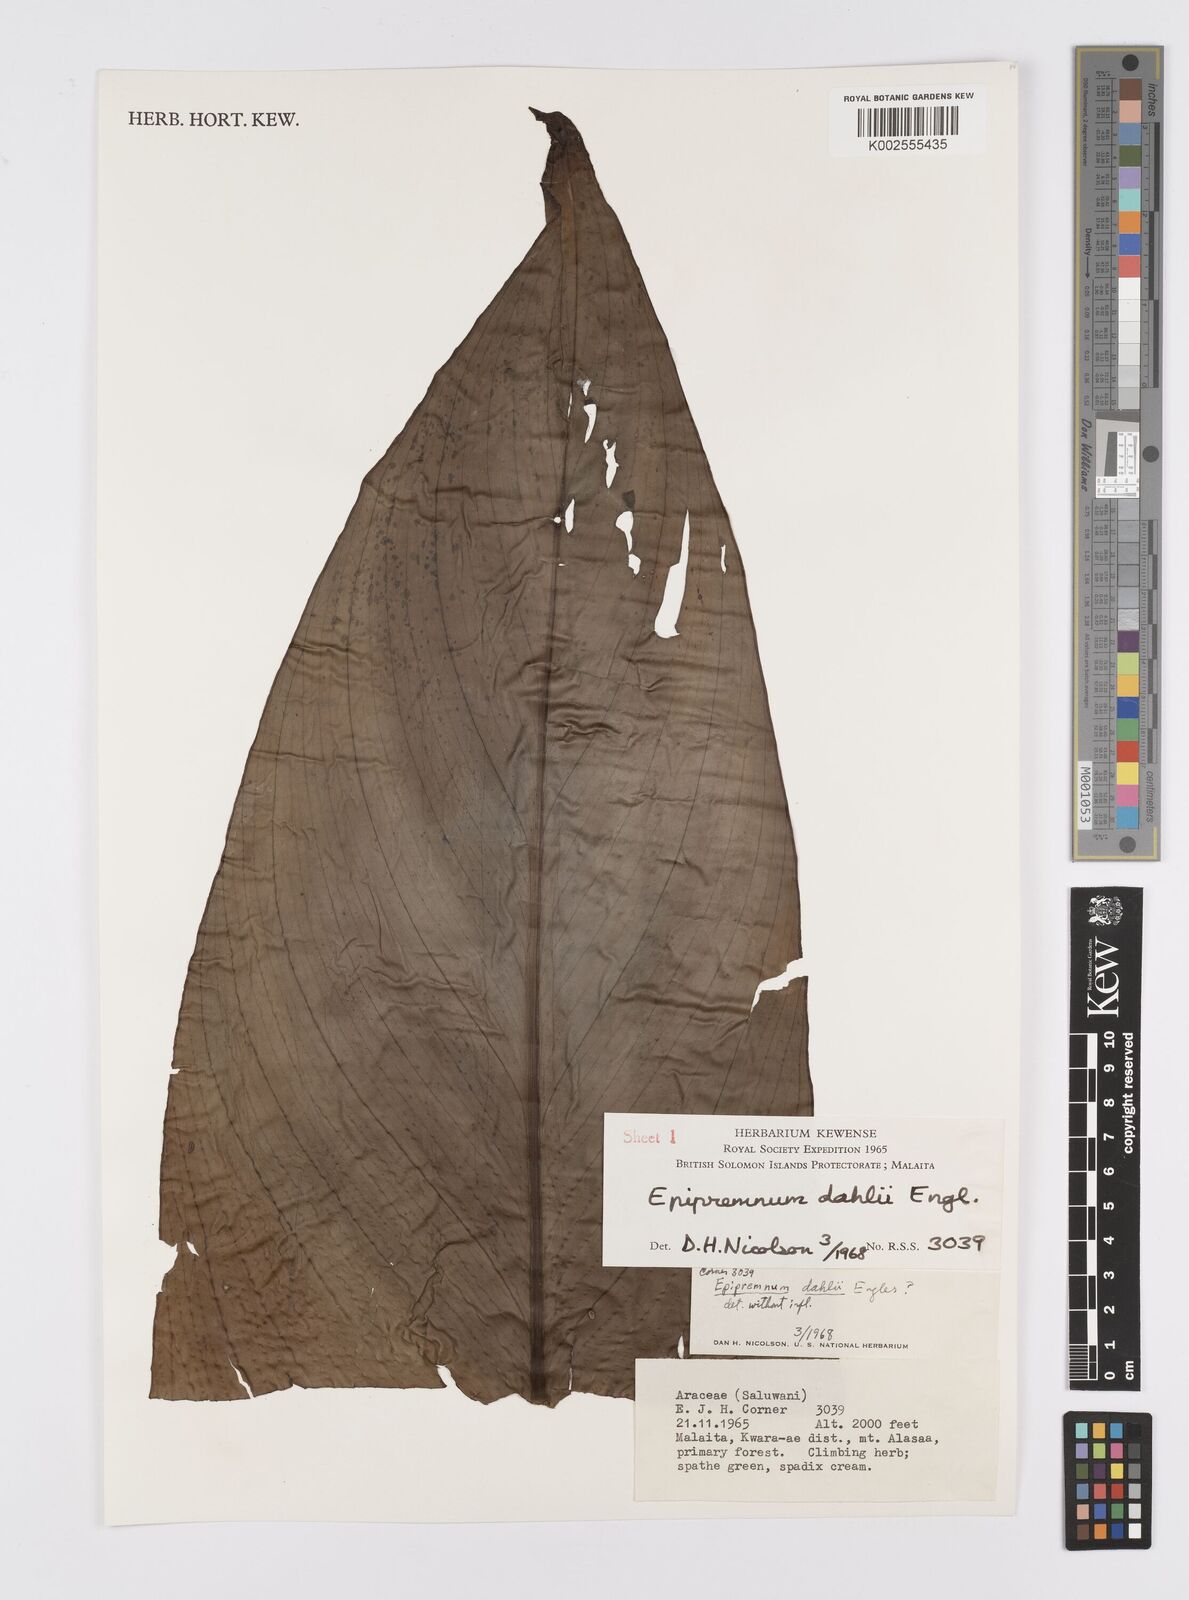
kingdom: Plantae
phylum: Tracheophyta
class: Liliopsida
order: Alismatales
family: Araceae
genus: Epipremnum
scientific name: Epipremnum dahlii
